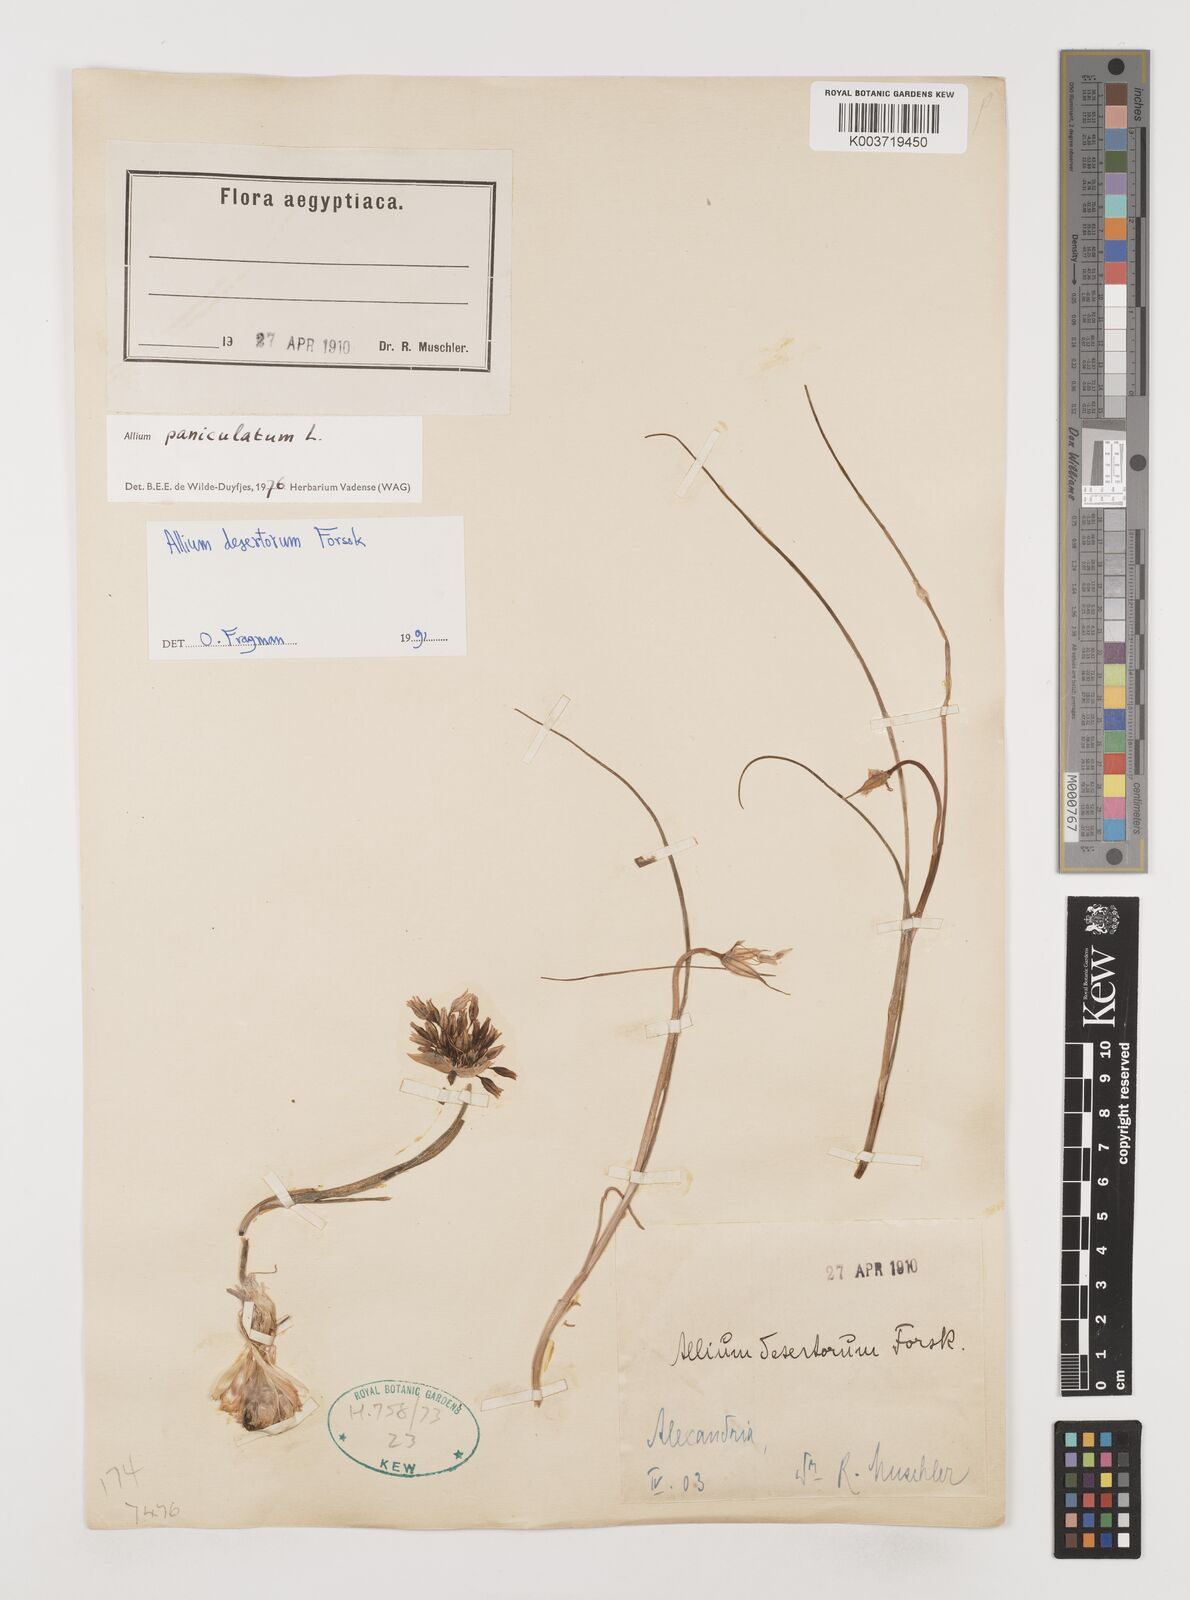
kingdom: Plantae
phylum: Tracheophyta
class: Liliopsida
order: Asparagales
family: Amaryllidaceae
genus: Allium
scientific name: Allium desertorum
